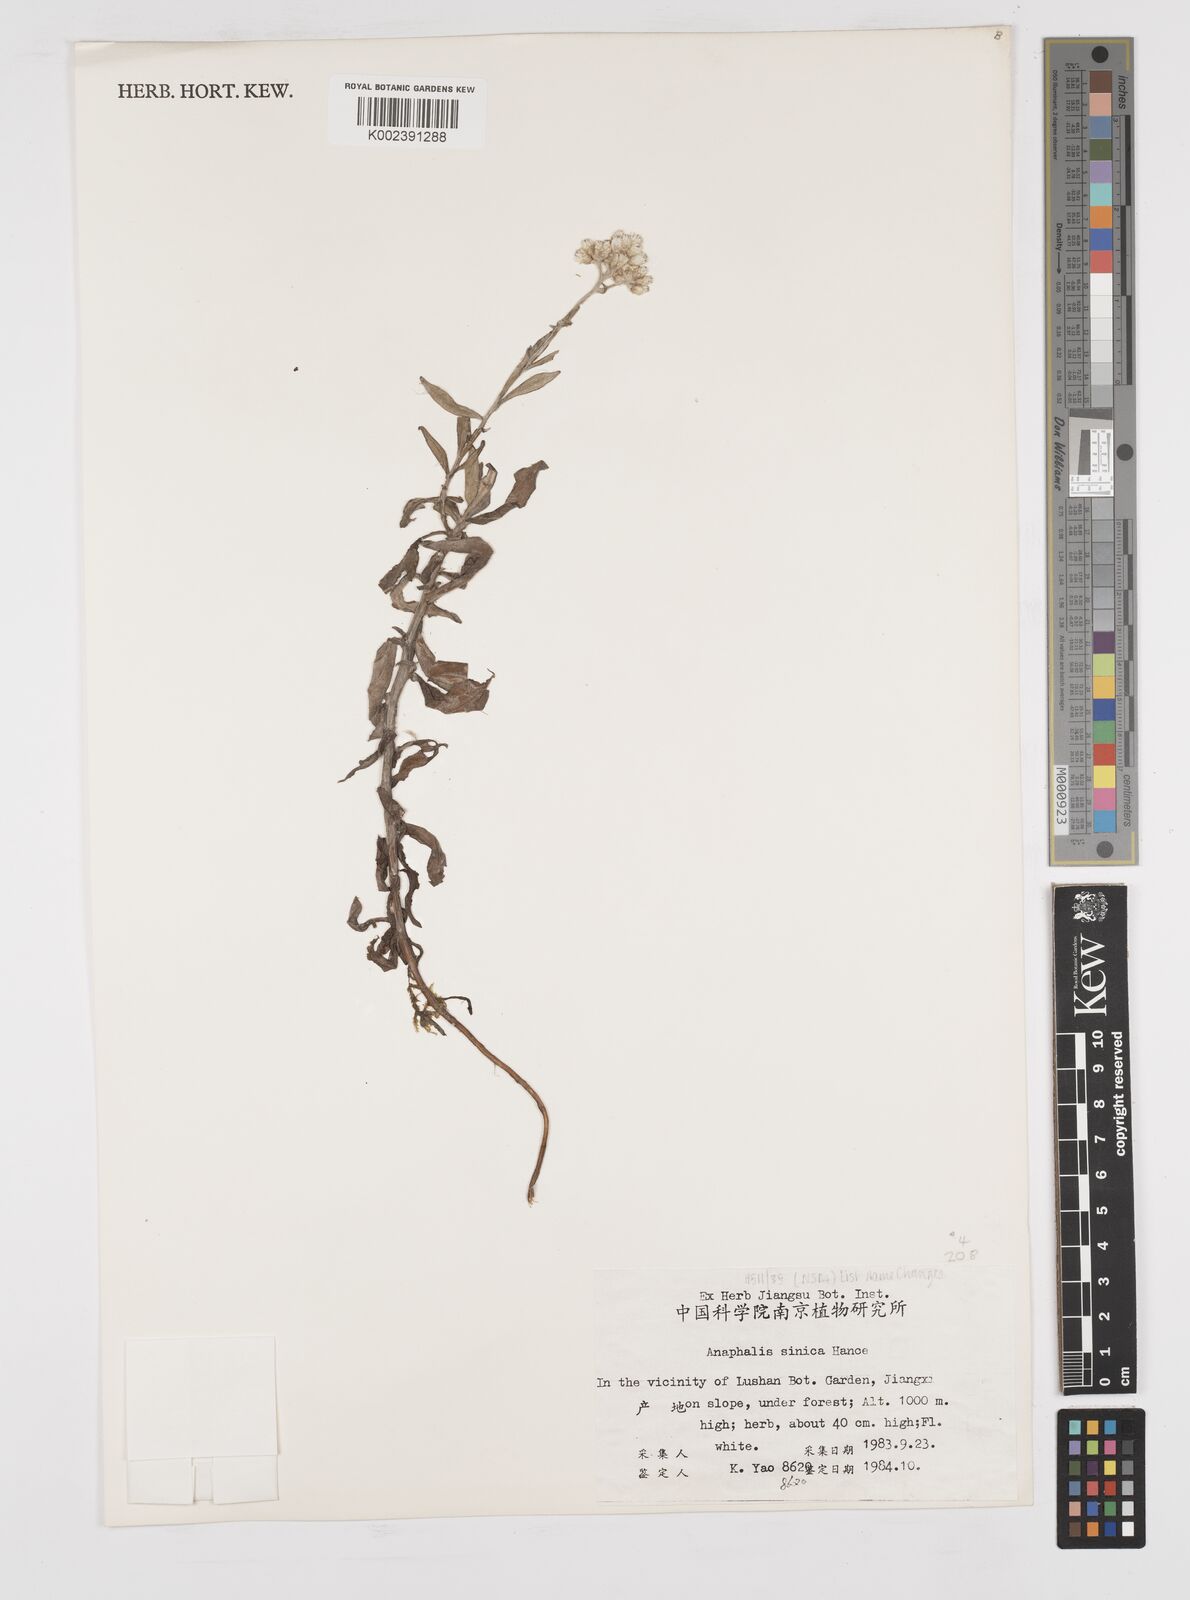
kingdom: Plantae
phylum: Tracheophyta
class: Magnoliopsida
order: Asterales
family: Asteraceae
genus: Anaphalis
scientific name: Anaphalis sinica
